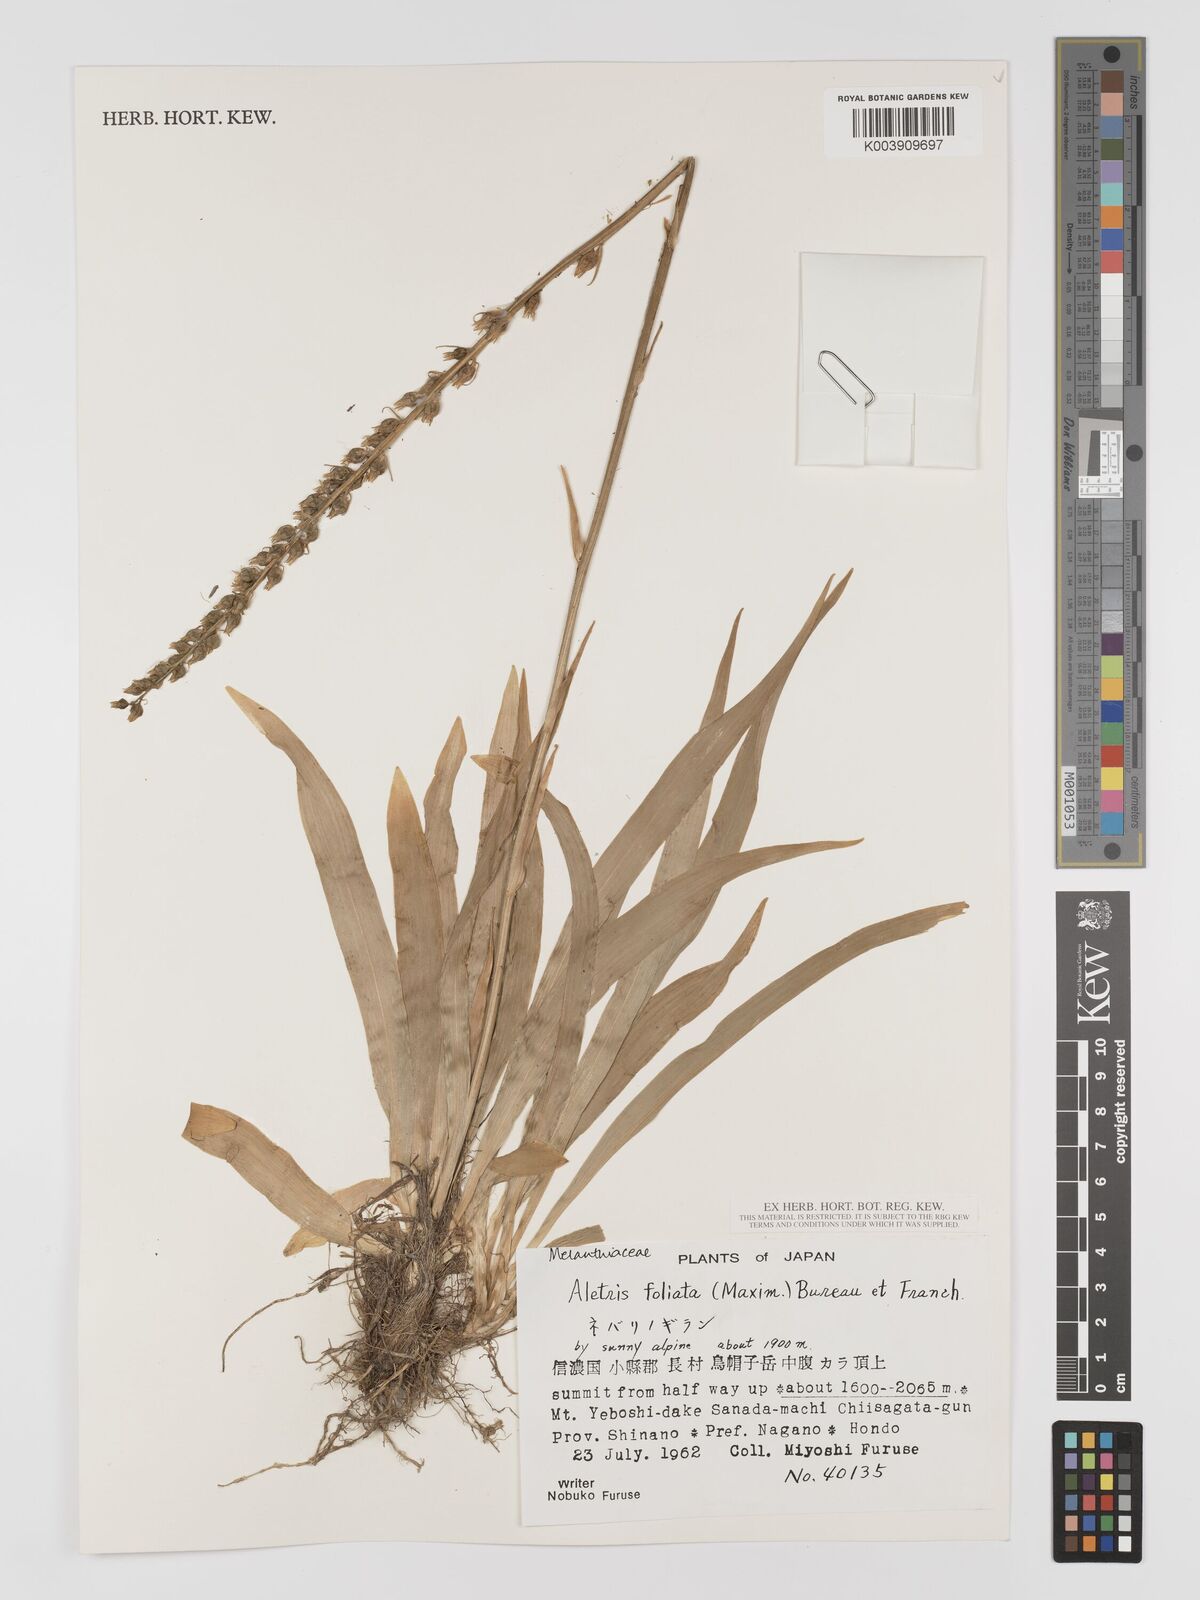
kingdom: Plantae
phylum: Tracheophyta
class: Liliopsida
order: Dioscoreales
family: Nartheciaceae
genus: Aletris
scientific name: Aletris foliata
